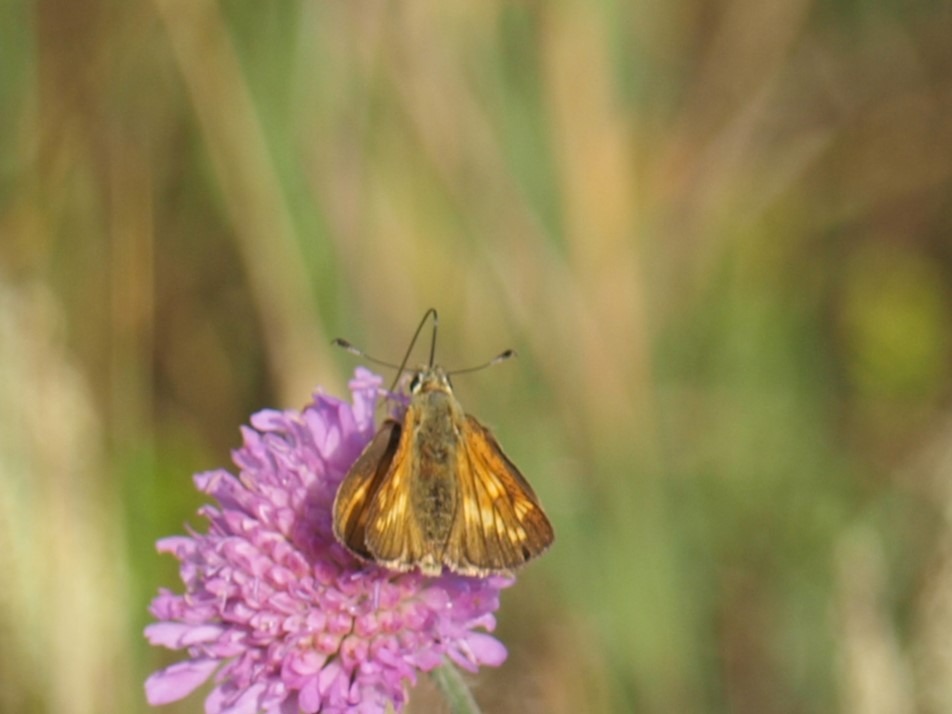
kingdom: Animalia
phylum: Arthropoda
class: Insecta
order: Lepidoptera
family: Hesperiidae
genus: Ochlodes
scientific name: Ochlodes venata
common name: Stor bredpande
